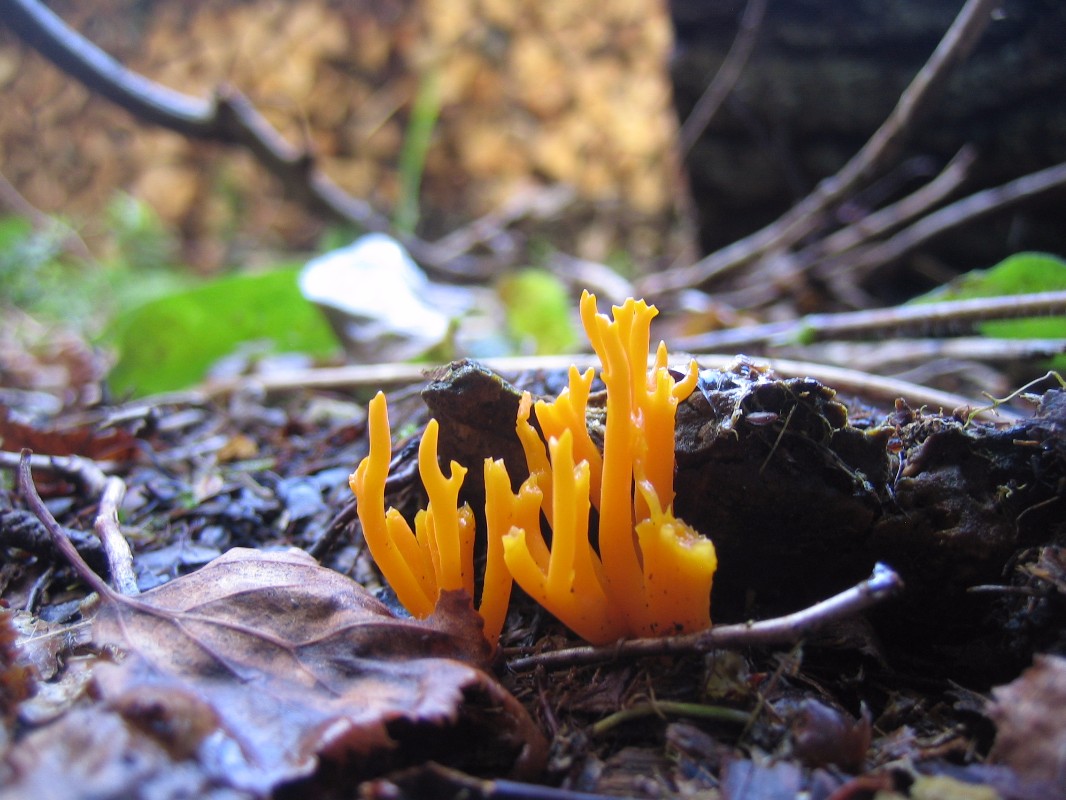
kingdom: Fungi
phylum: Basidiomycota
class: Dacrymycetes
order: Dacrymycetales
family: Dacrymycetaceae
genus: Calocera
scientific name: Calocera viscosa
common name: almindelig guldgaffel
